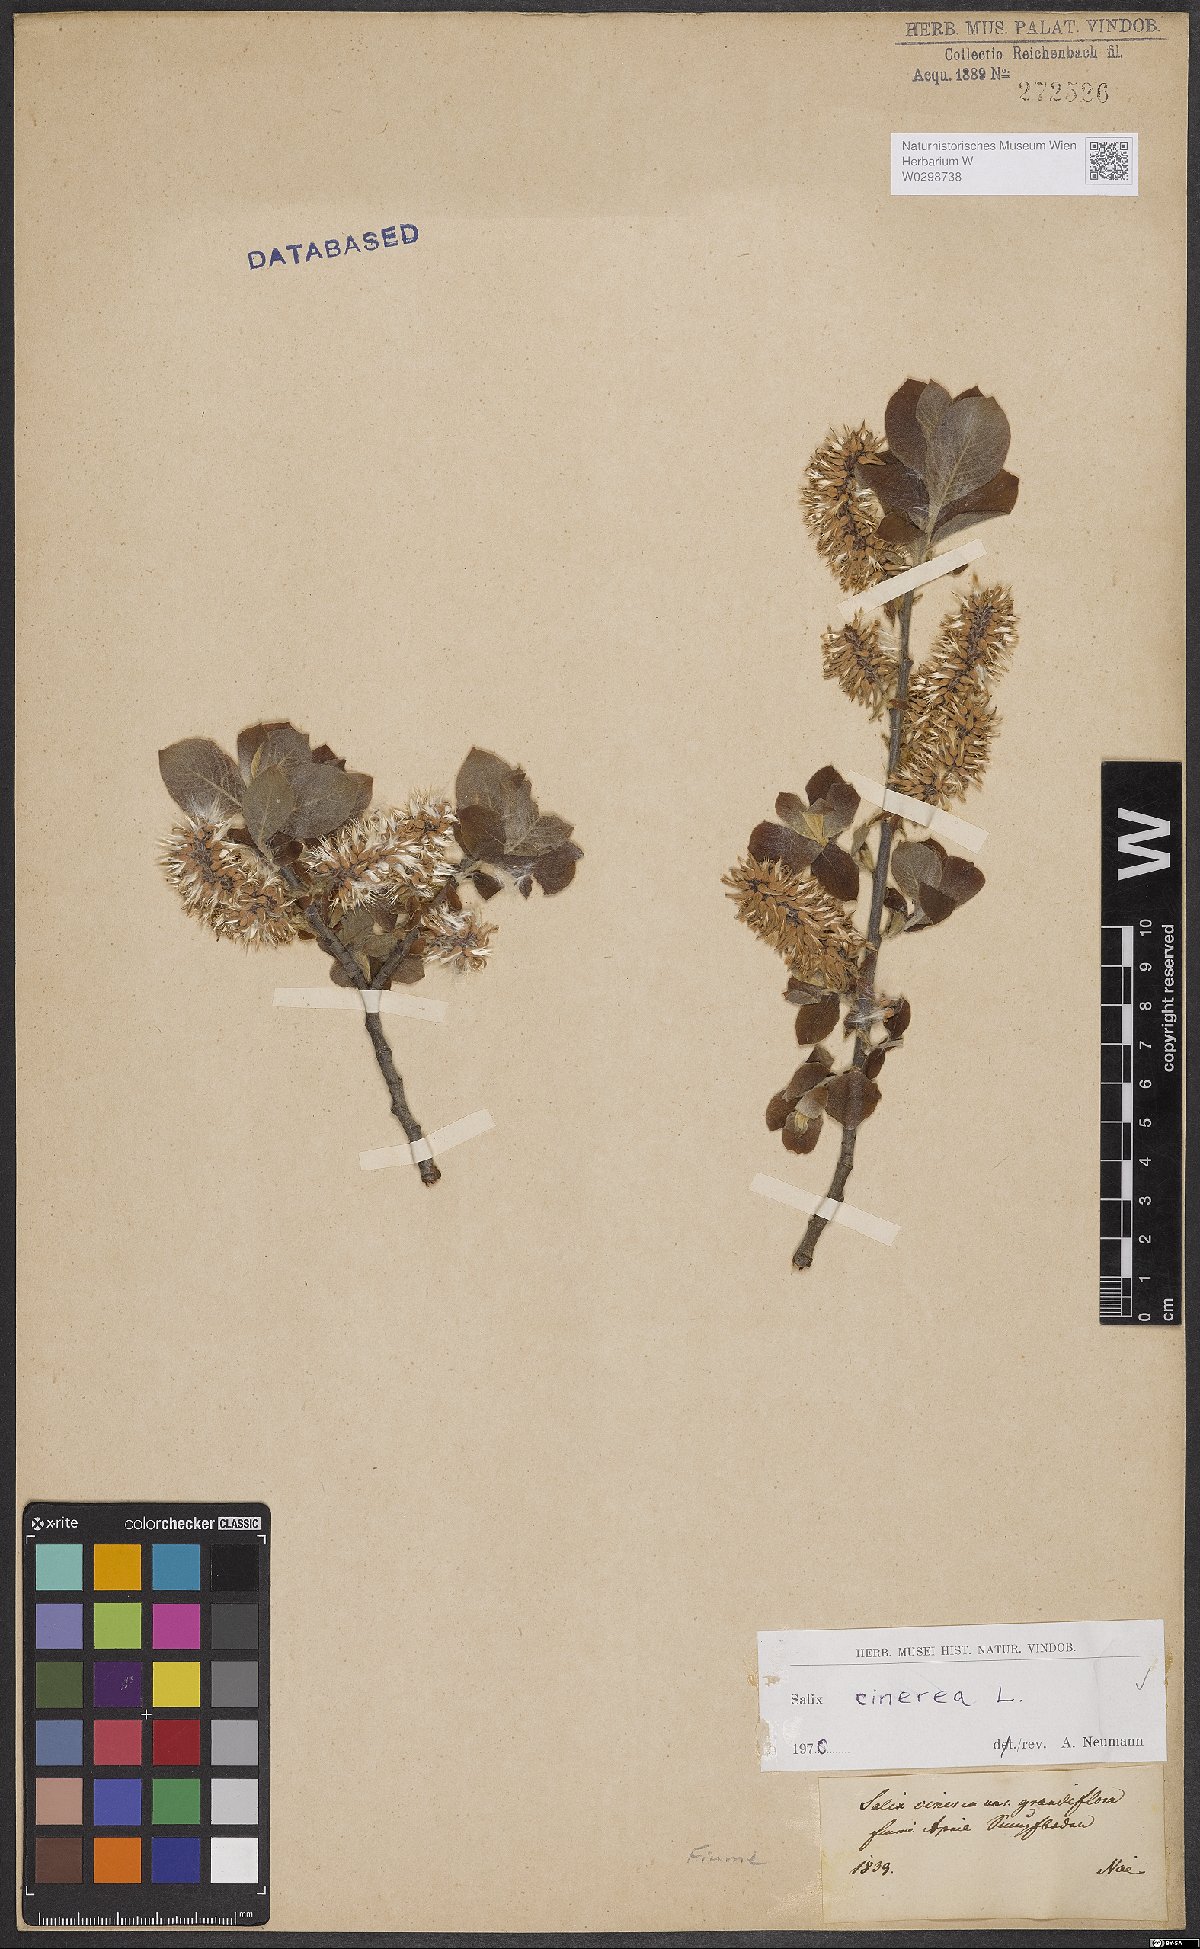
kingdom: Plantae
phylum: Tracheophyta
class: Magnoliopsida
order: Malpighiales
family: Salicaceae
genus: Salix
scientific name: Salix cinerea
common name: Common sallow
